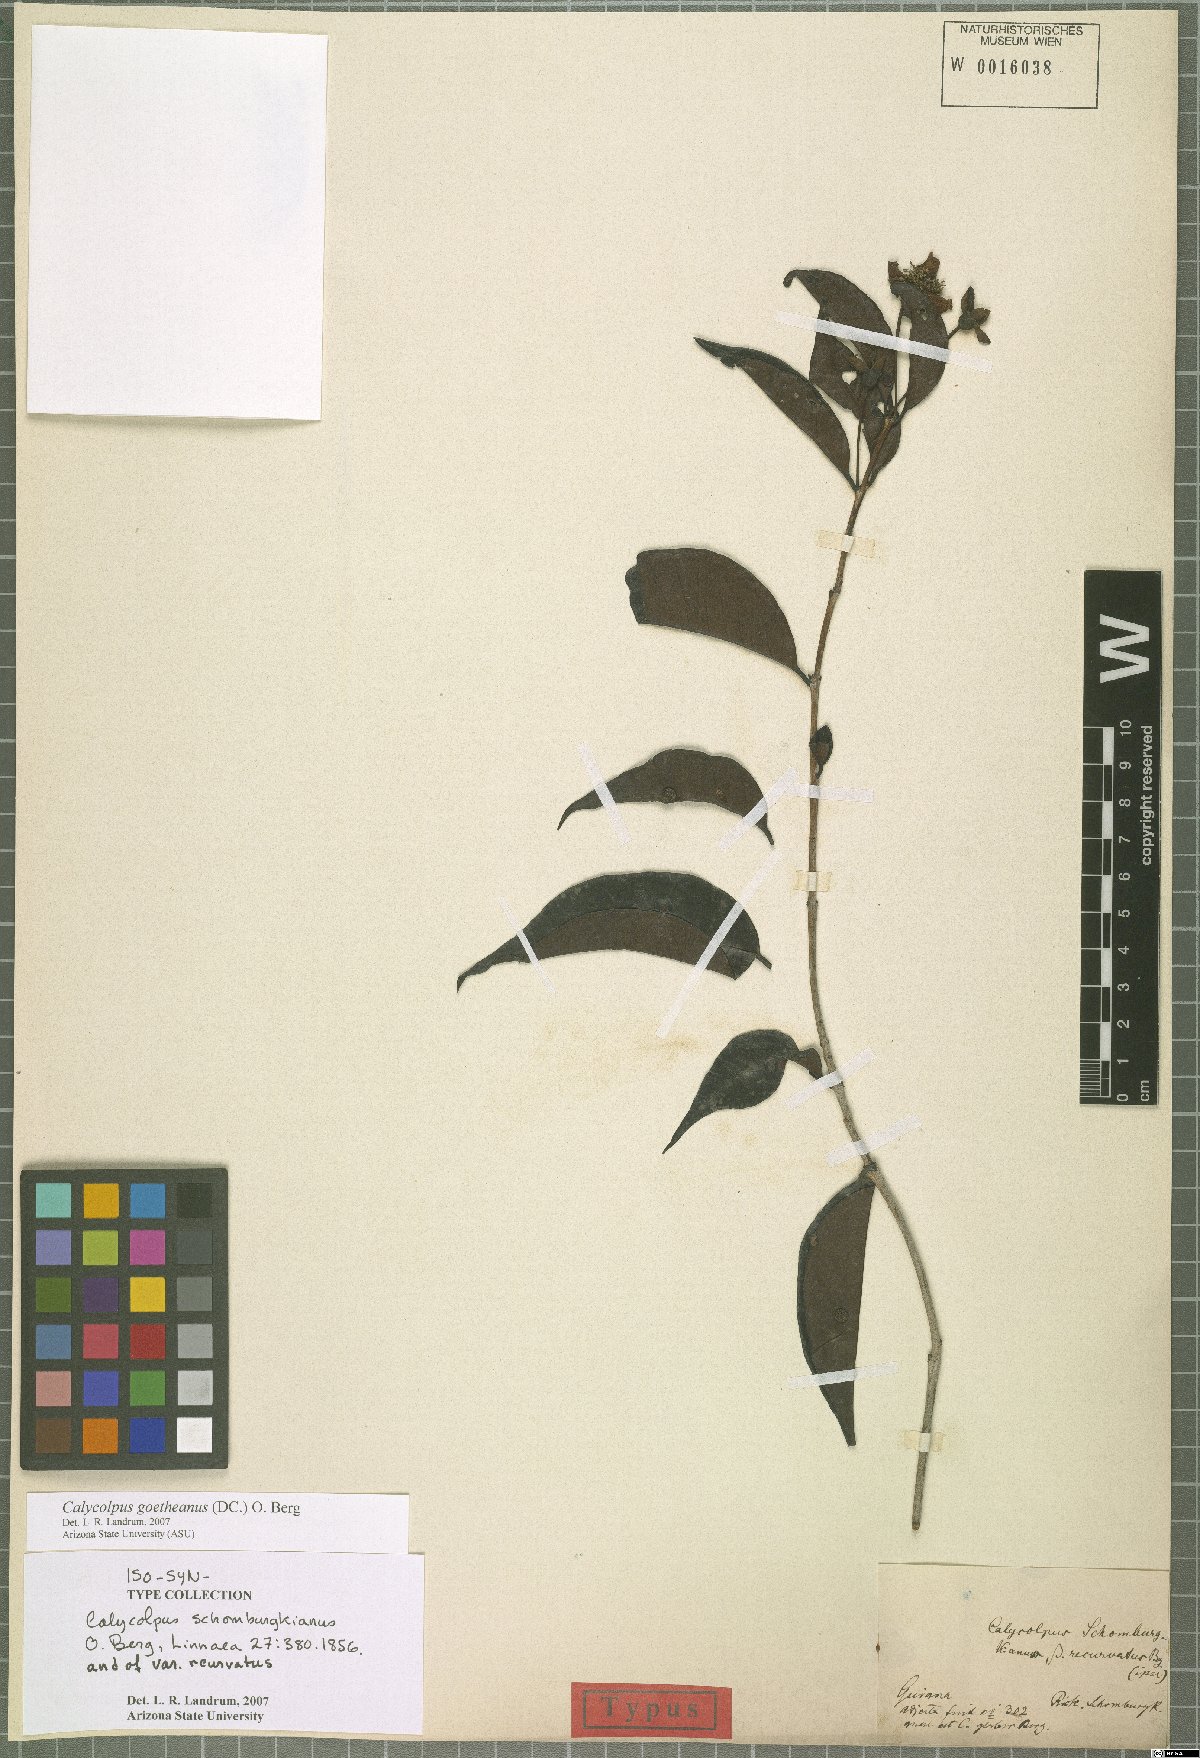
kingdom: Plantae
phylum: Tracheophyta
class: Magnoliopsida
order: Myrtales
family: Myrtaceae
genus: Calycolpus
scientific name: Calycolpus goetheanus
